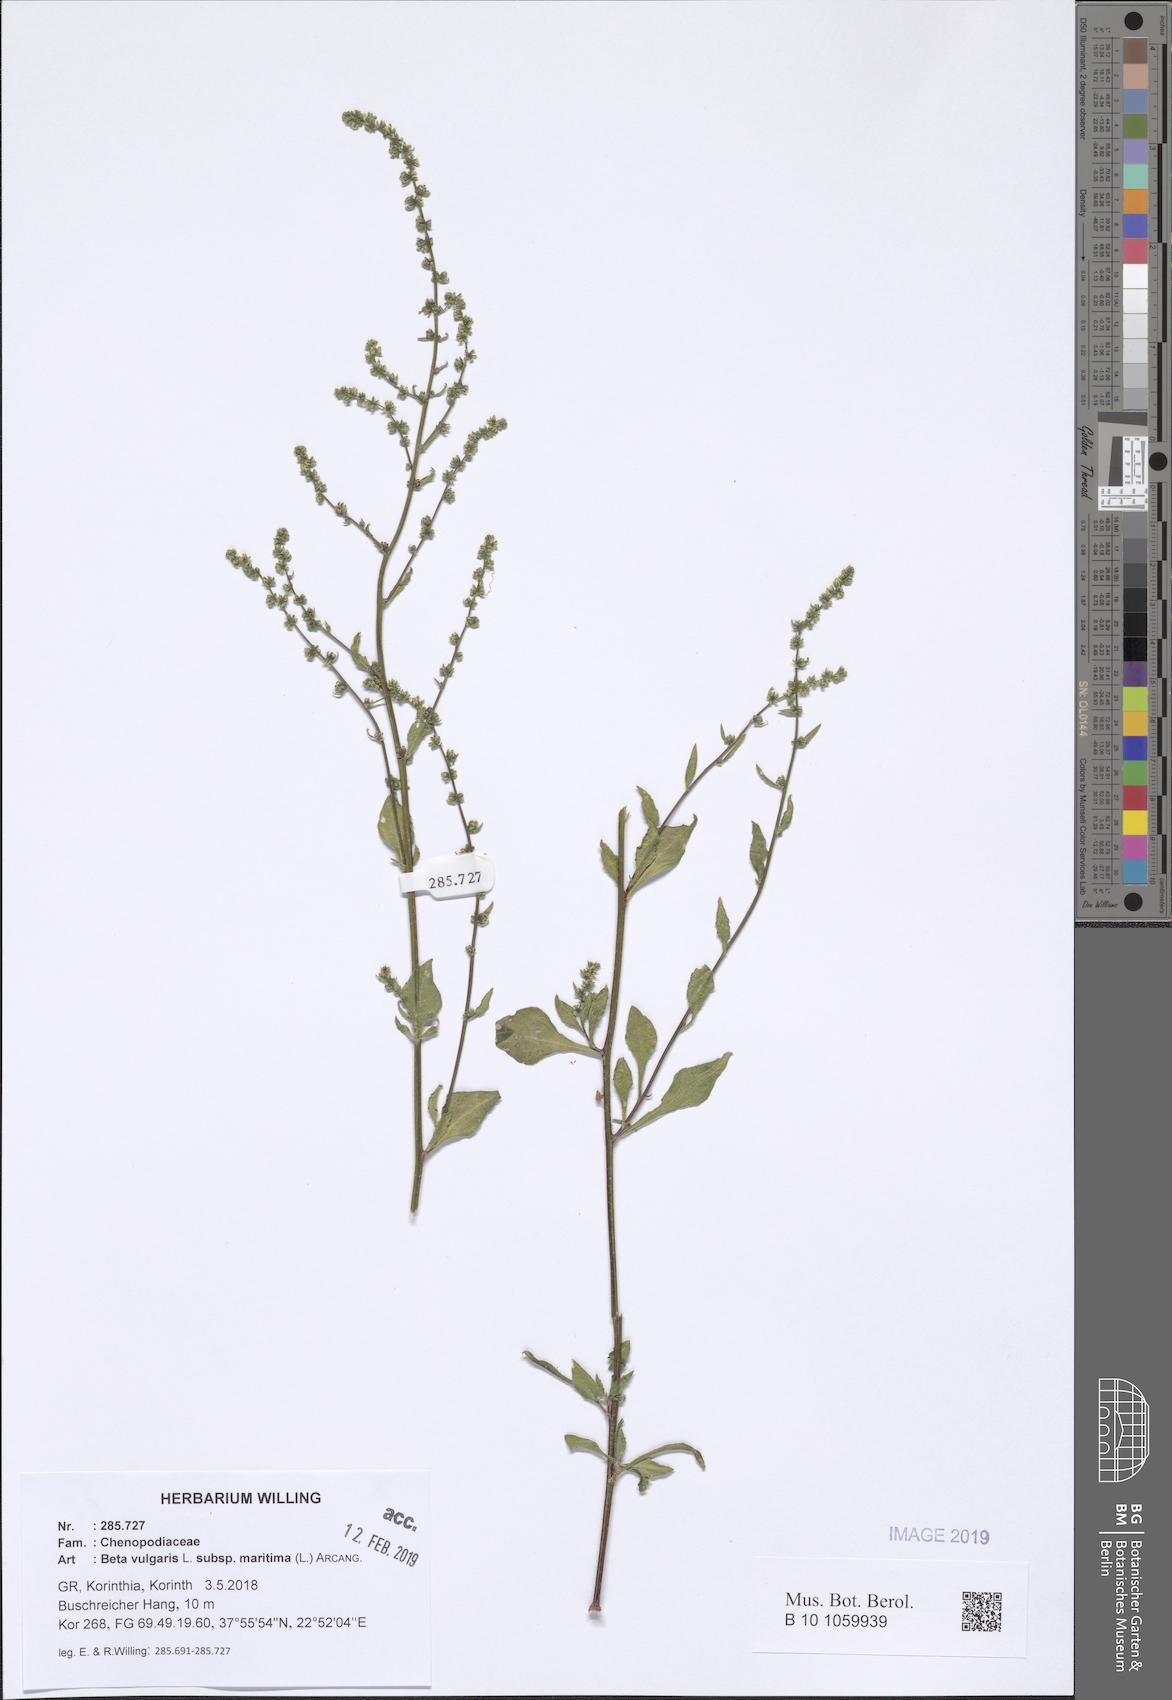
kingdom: Plantae
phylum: Tracheophyta
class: Magnoliopsida
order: Caryophyllales
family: Amaranthaceae
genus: Beta
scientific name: Beta maritima
